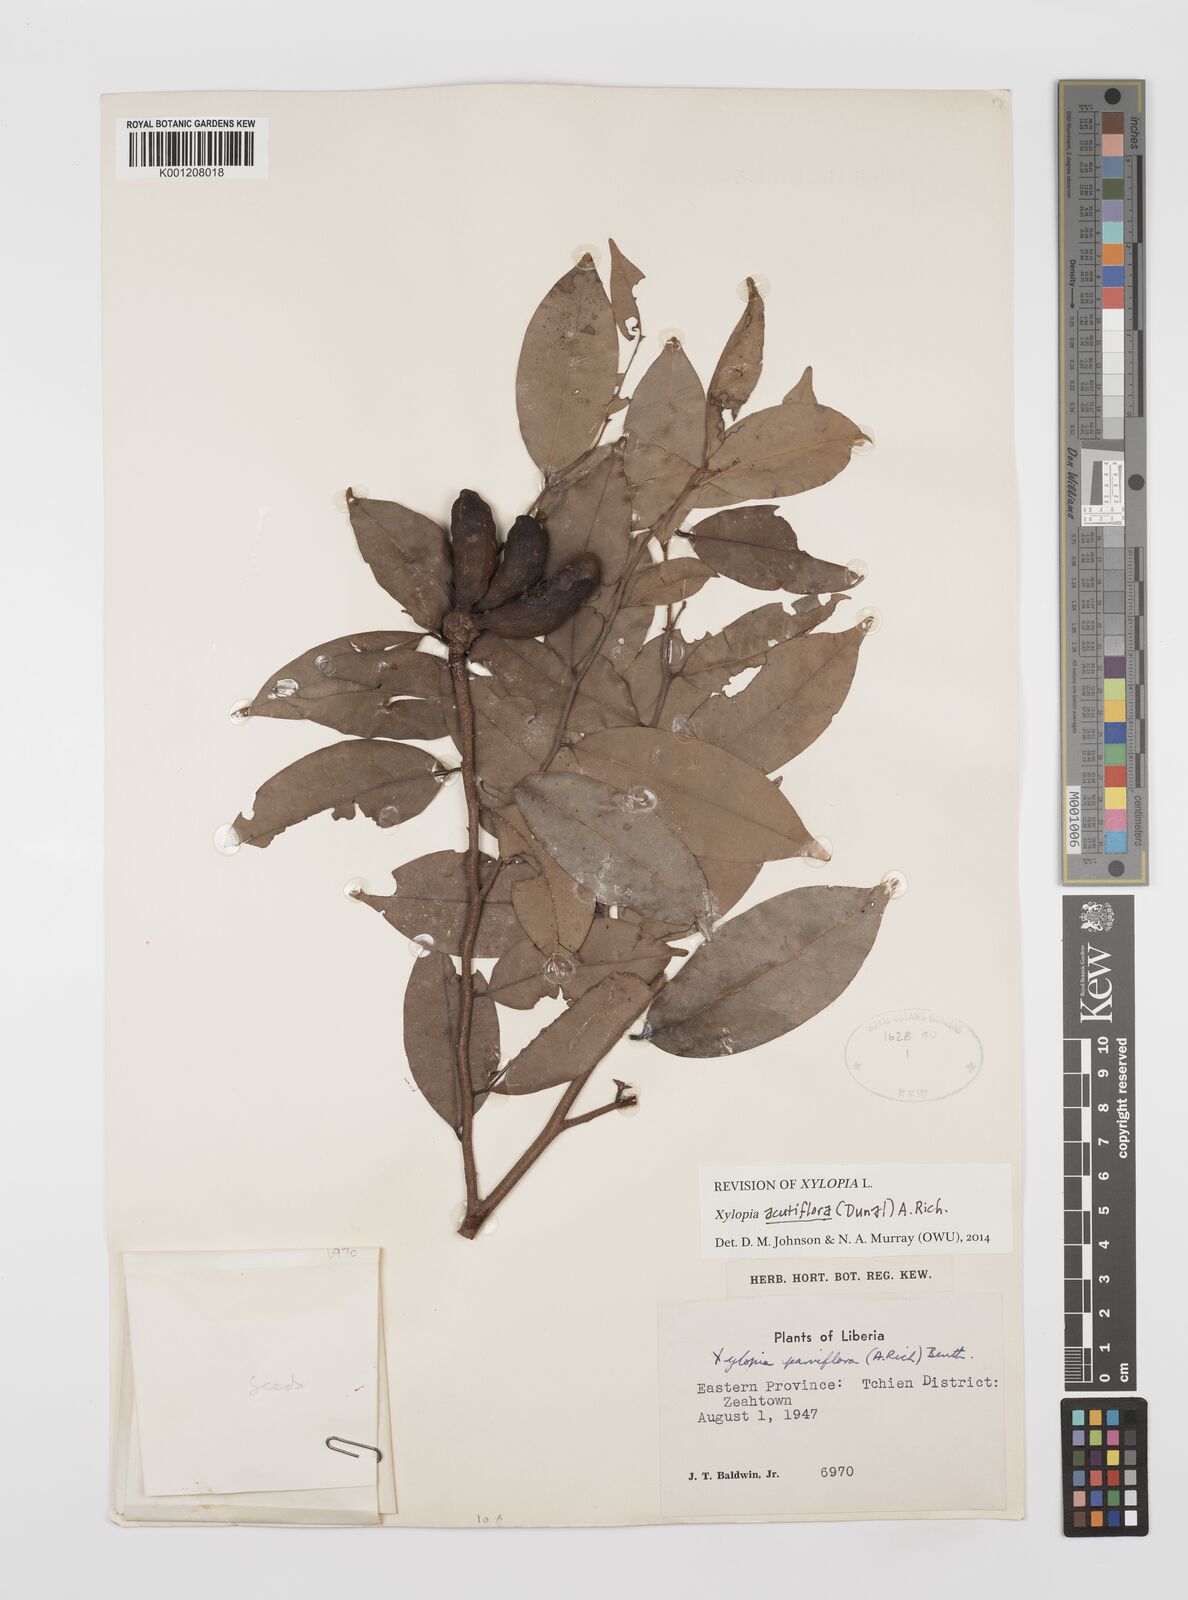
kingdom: Plantae
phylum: Tracheophyta
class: Magnoliopsida
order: Magnoliales
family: Annonaceae
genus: Xylopia
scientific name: Xylopia acutiflora
